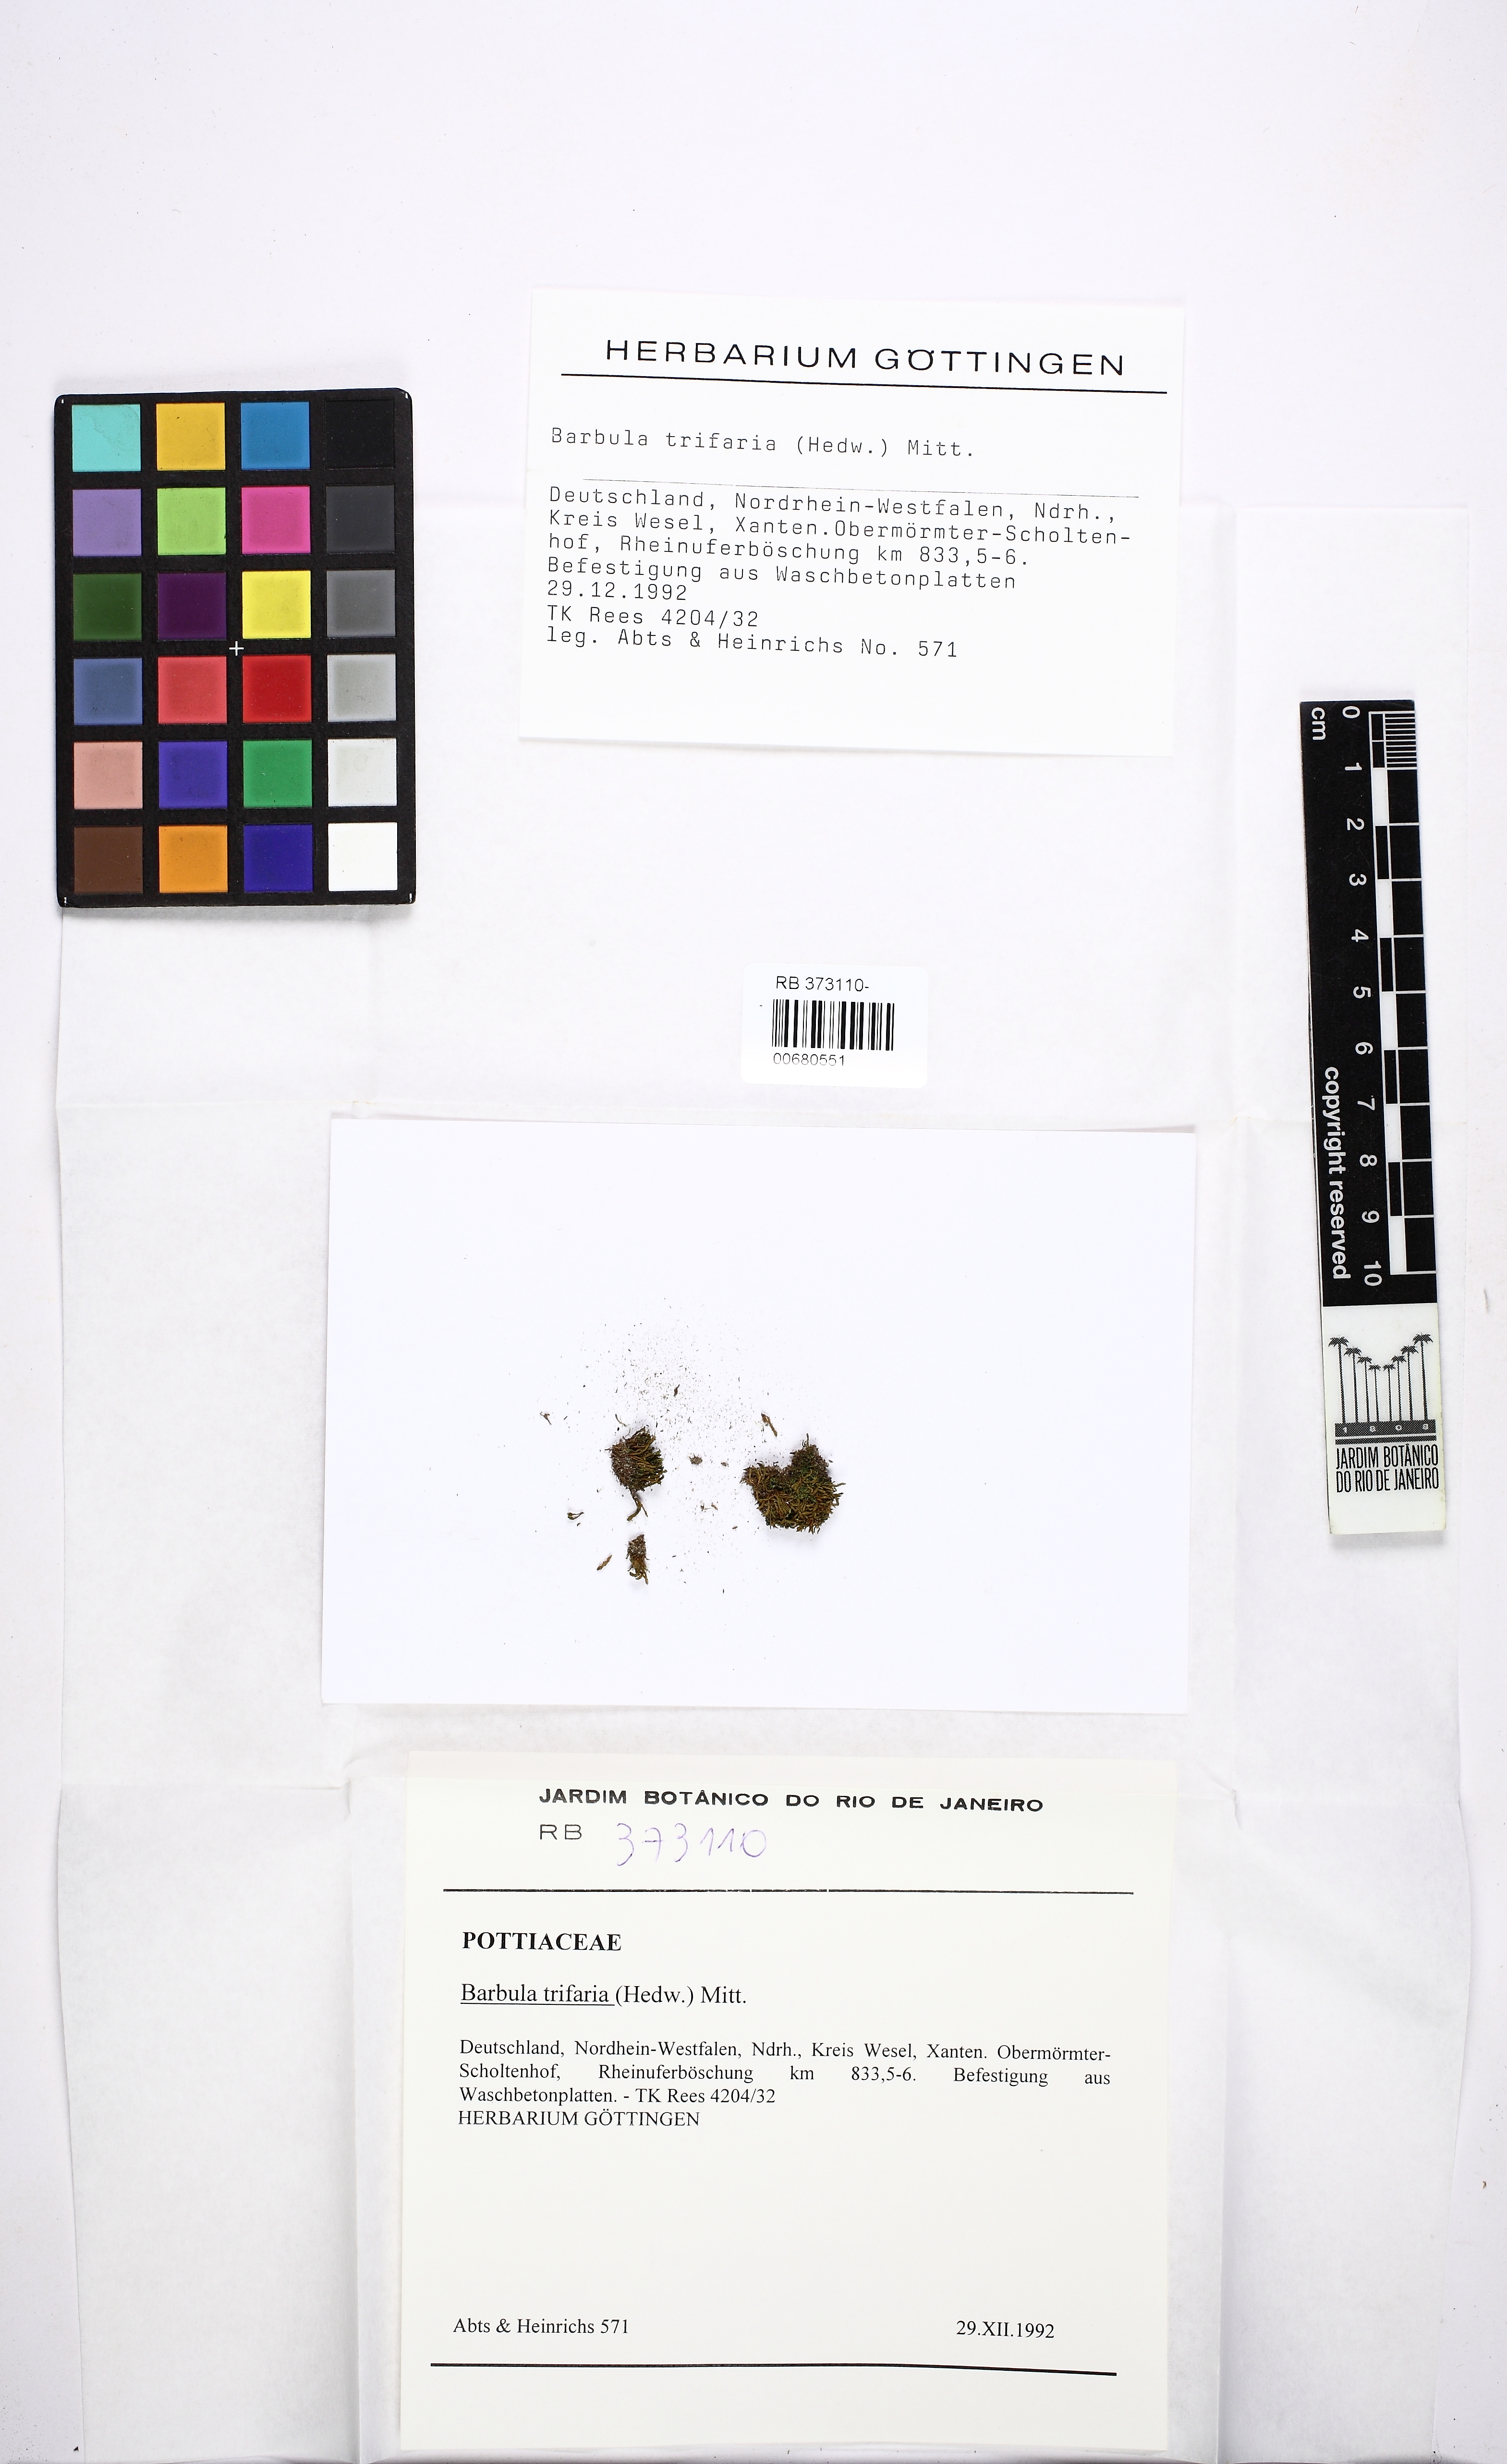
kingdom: Plantae
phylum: Bryophyta
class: Bryopsida
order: Grimmiales
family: Saelaniaceae
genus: Saelania
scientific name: Saelania glaucescens
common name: Blue dew-moss
